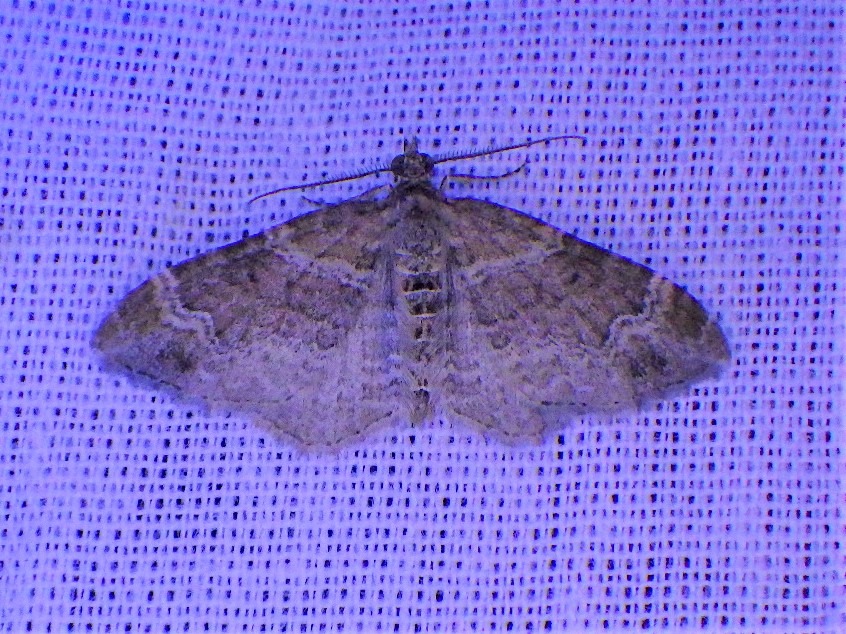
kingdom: Animalia
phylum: Arthropoda
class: Insecta
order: Lepidoptera
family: Geometridae
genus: Xanthorhoe
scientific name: Xanthorhoe ferrugata
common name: Rustbladmåler
